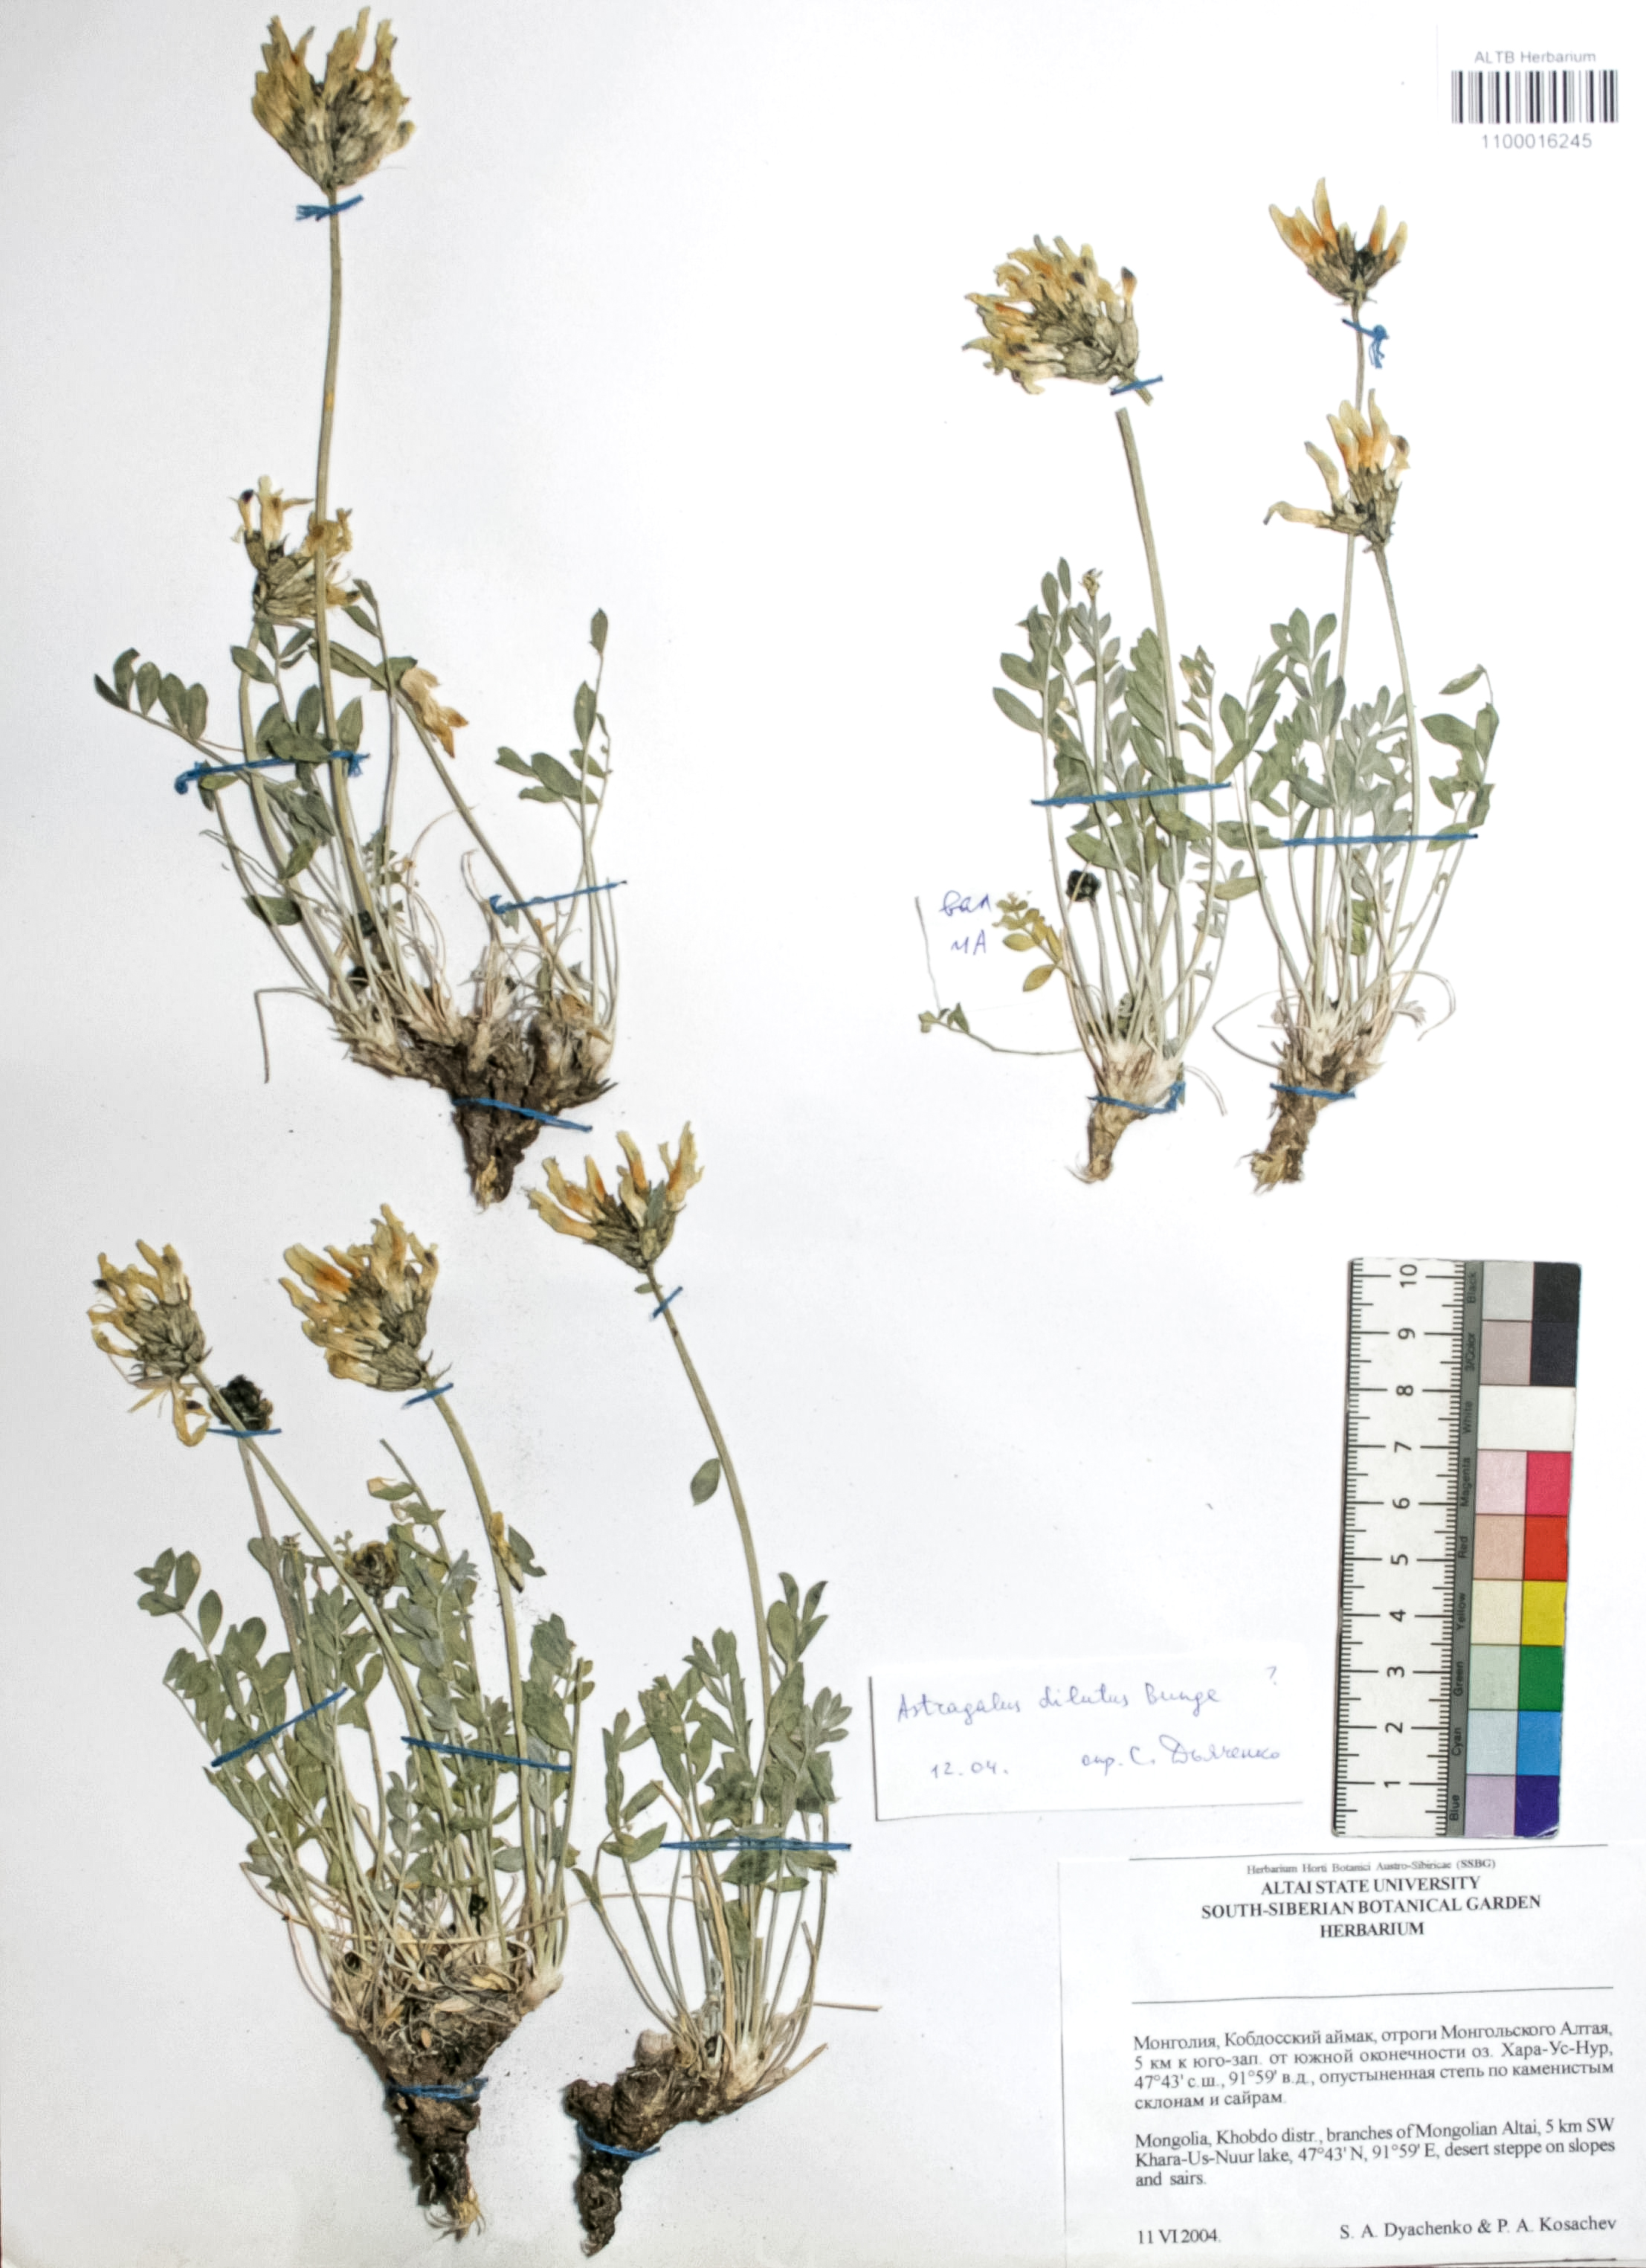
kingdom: Plantae
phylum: Tracheophyta
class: Magnoliopsida
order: Fabales
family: Fabaceae
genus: Astragalus
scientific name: Astragalus dilutus
